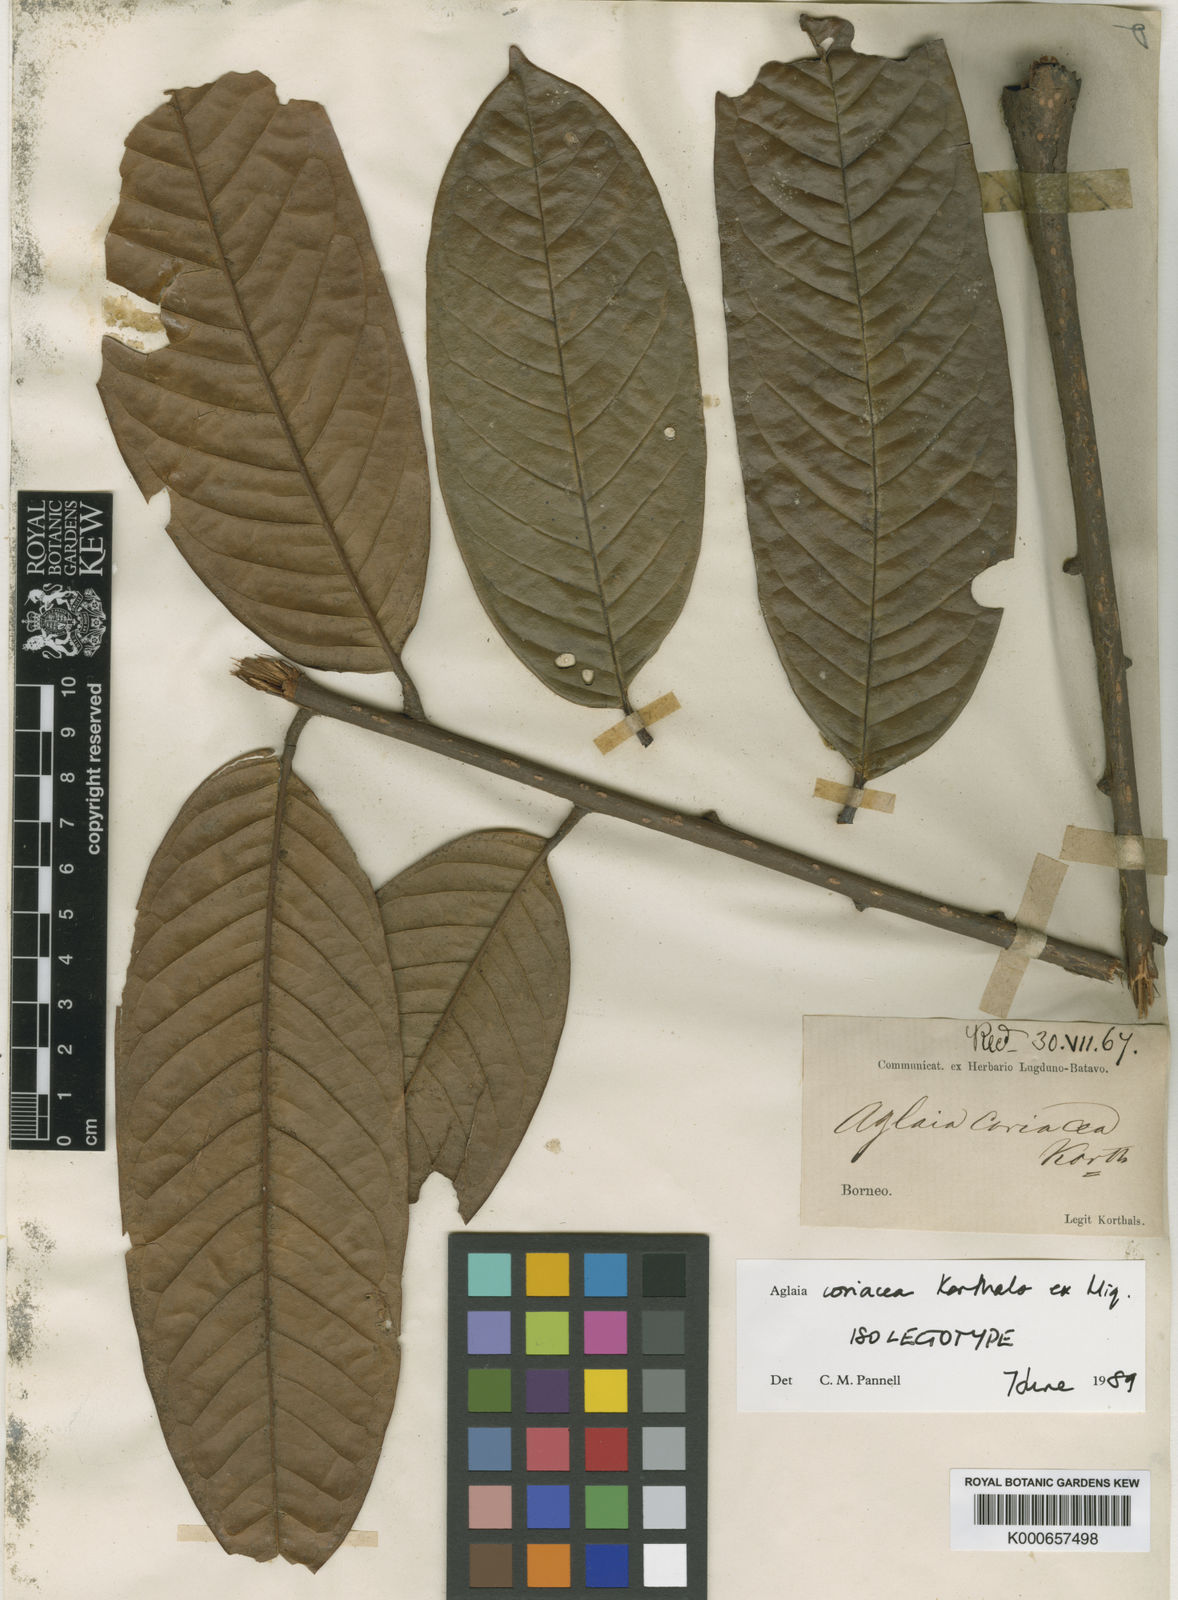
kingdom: Plantae
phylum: Tracheophyta
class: Magnoliopsida
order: Sapindales
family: Meliaceae
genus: Aglaia
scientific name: Aglaia coriacea
